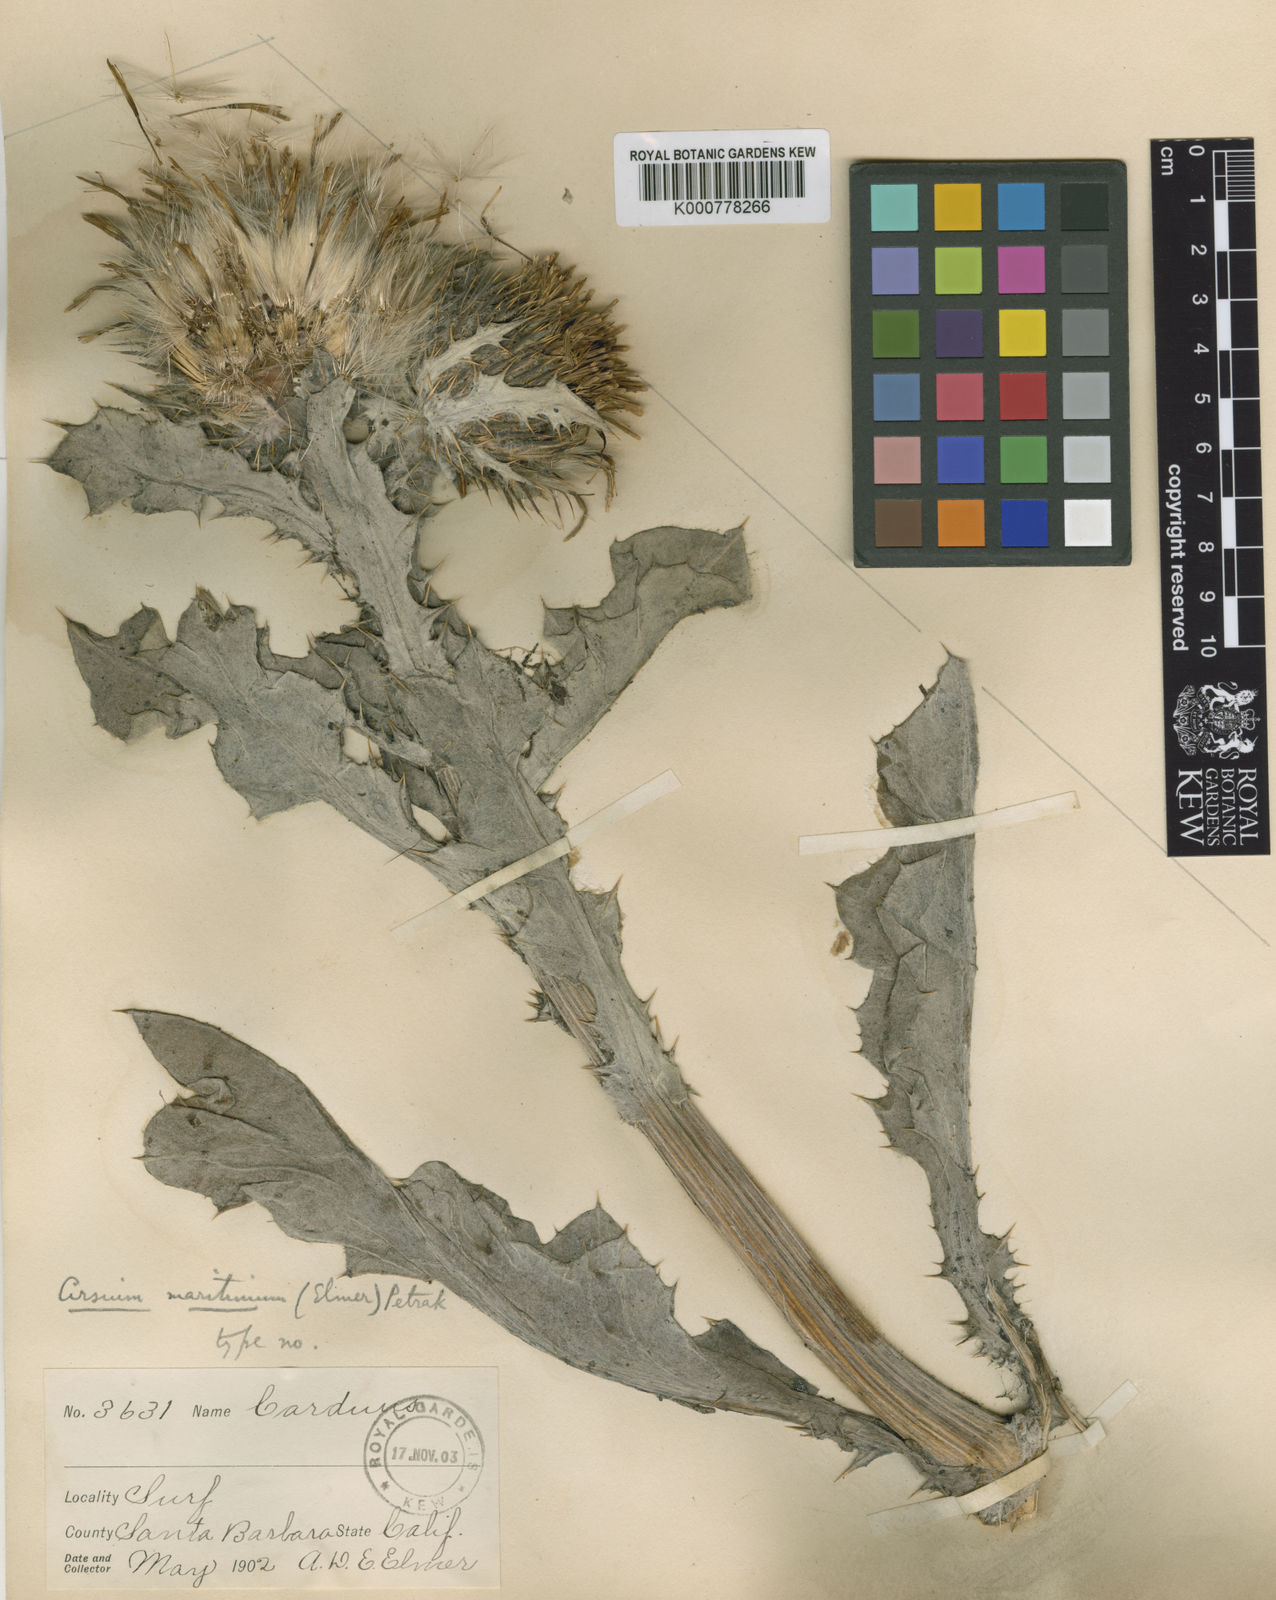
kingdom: Plantae
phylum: Tracheophyta
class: Magnoliopsida
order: Asterales
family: Asteraceae
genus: Cirsium
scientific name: Cirsium rhothophilum
